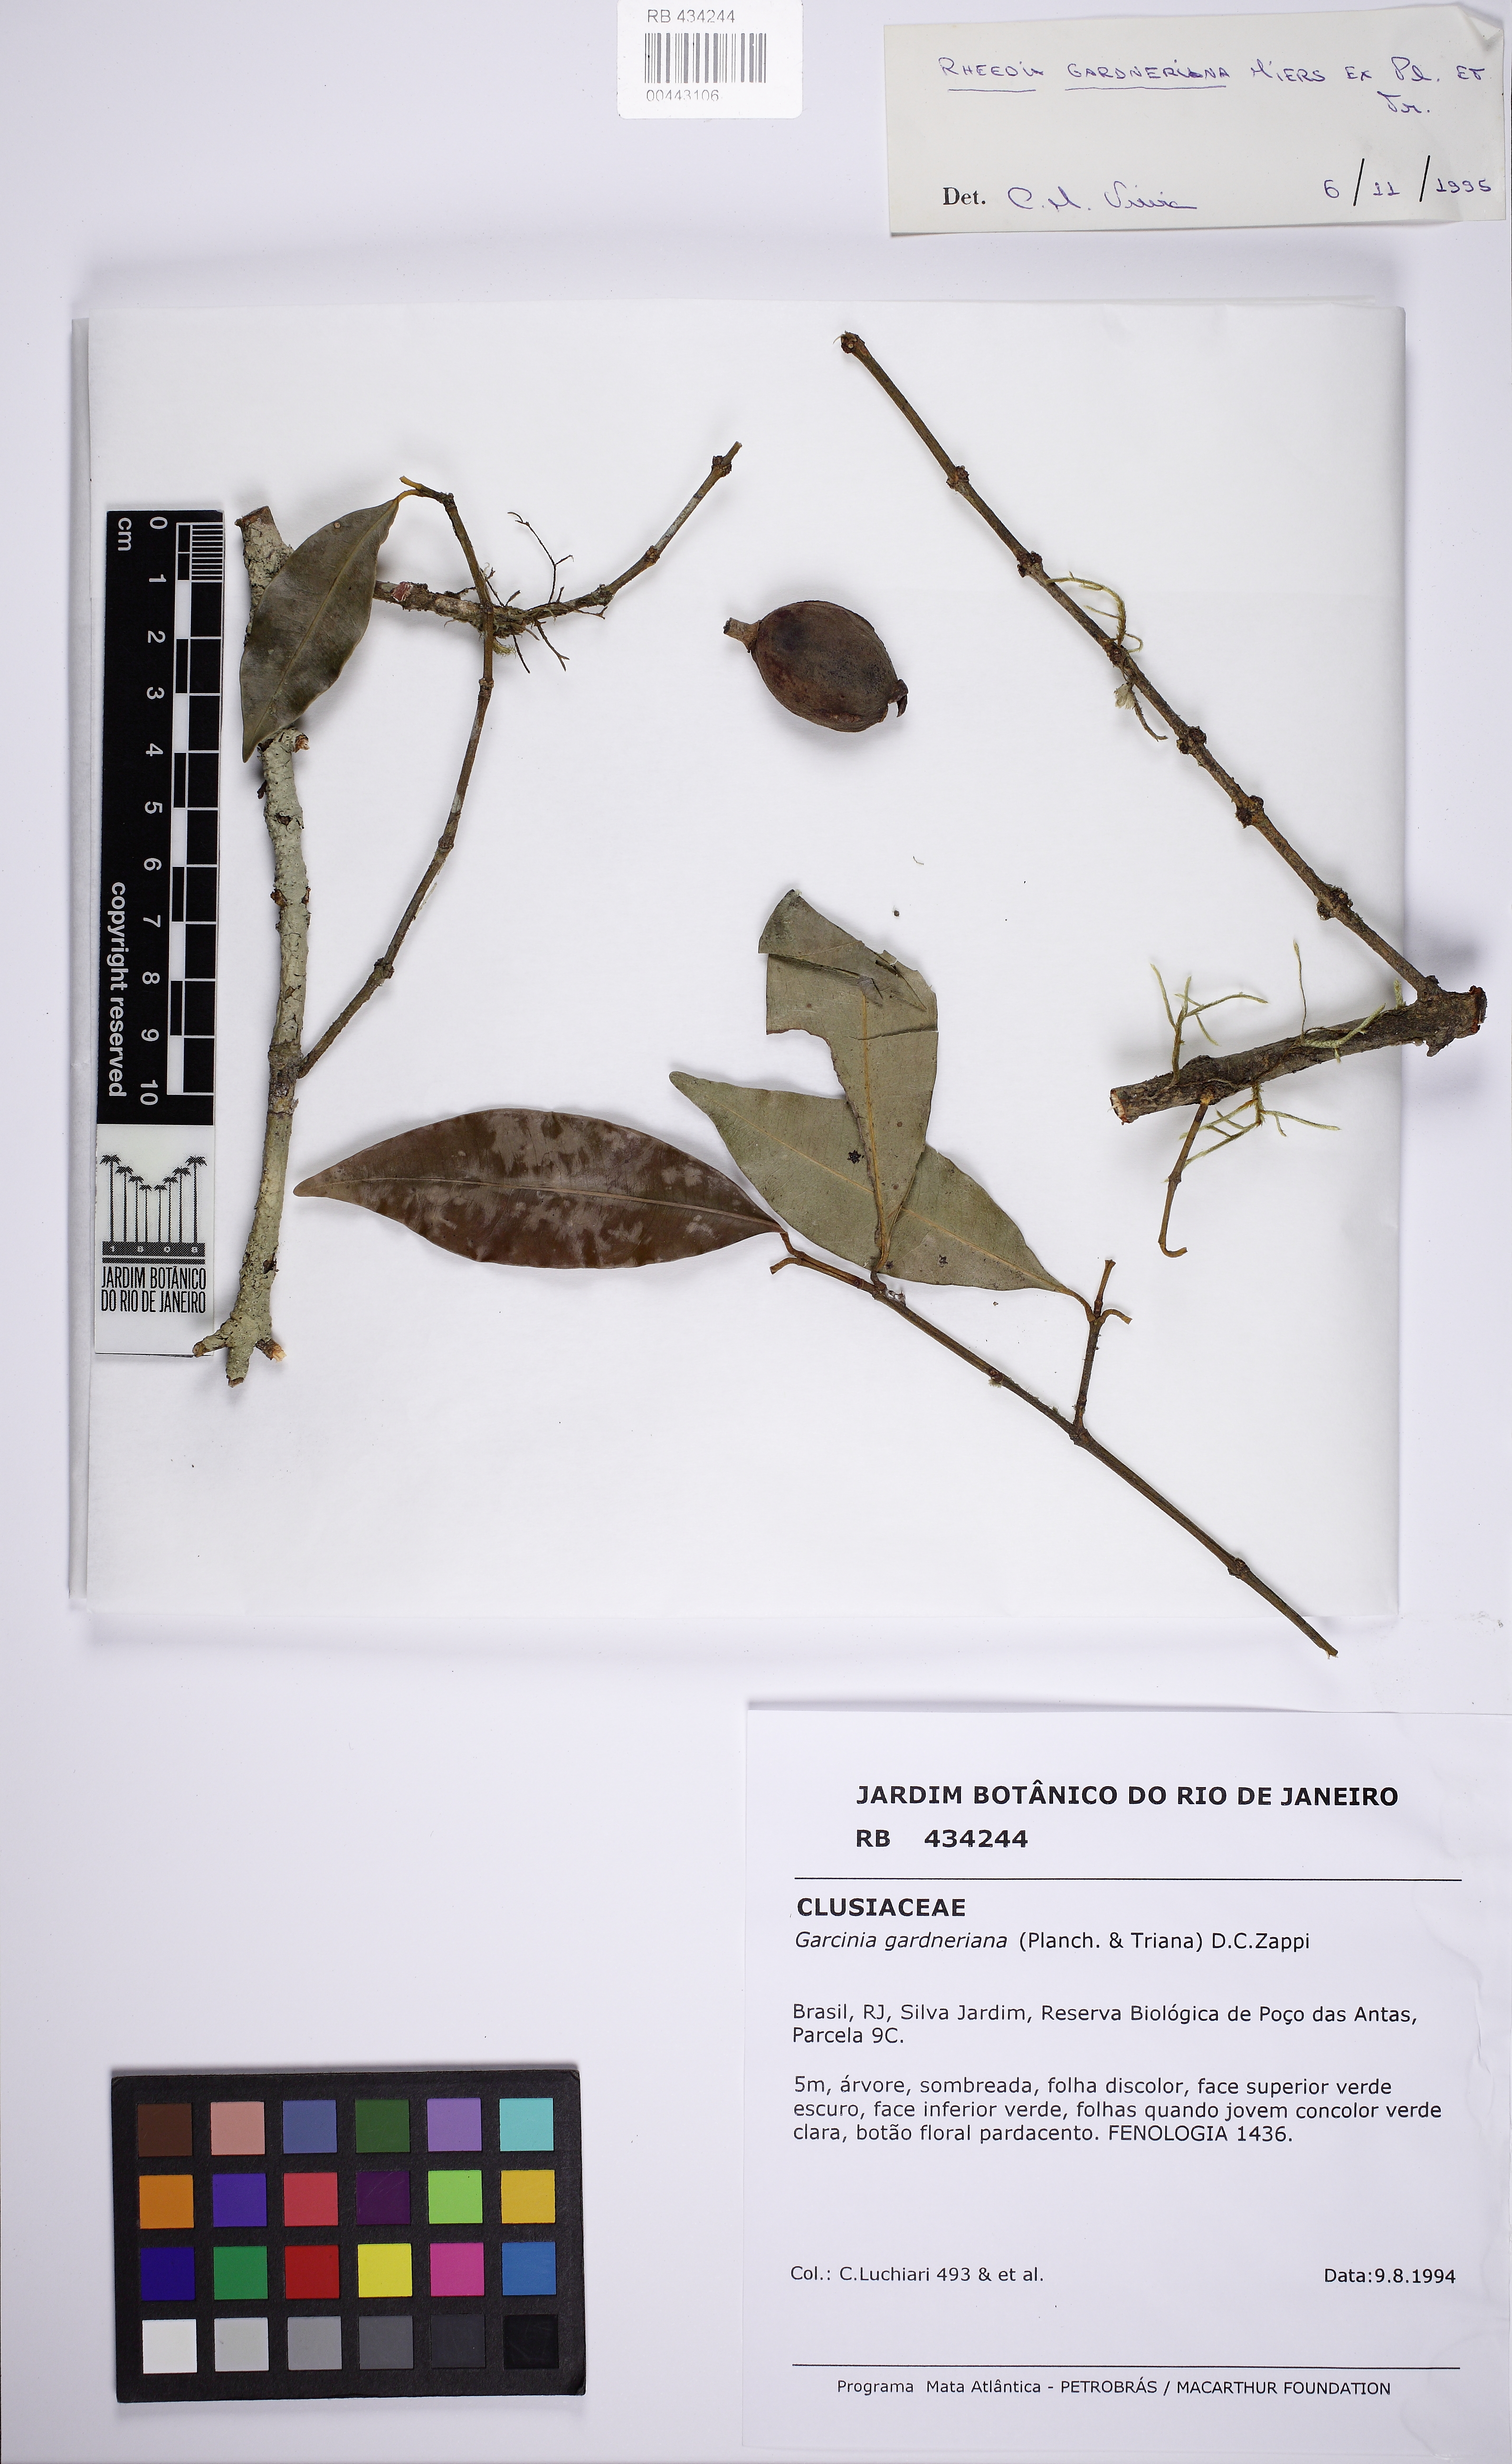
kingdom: Plantae
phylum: Tracheophyta
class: Magnoliopsida
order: Malpighiales
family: Clusiaceae
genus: Garcinia
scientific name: Garcinia gardneriana
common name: Achacha
